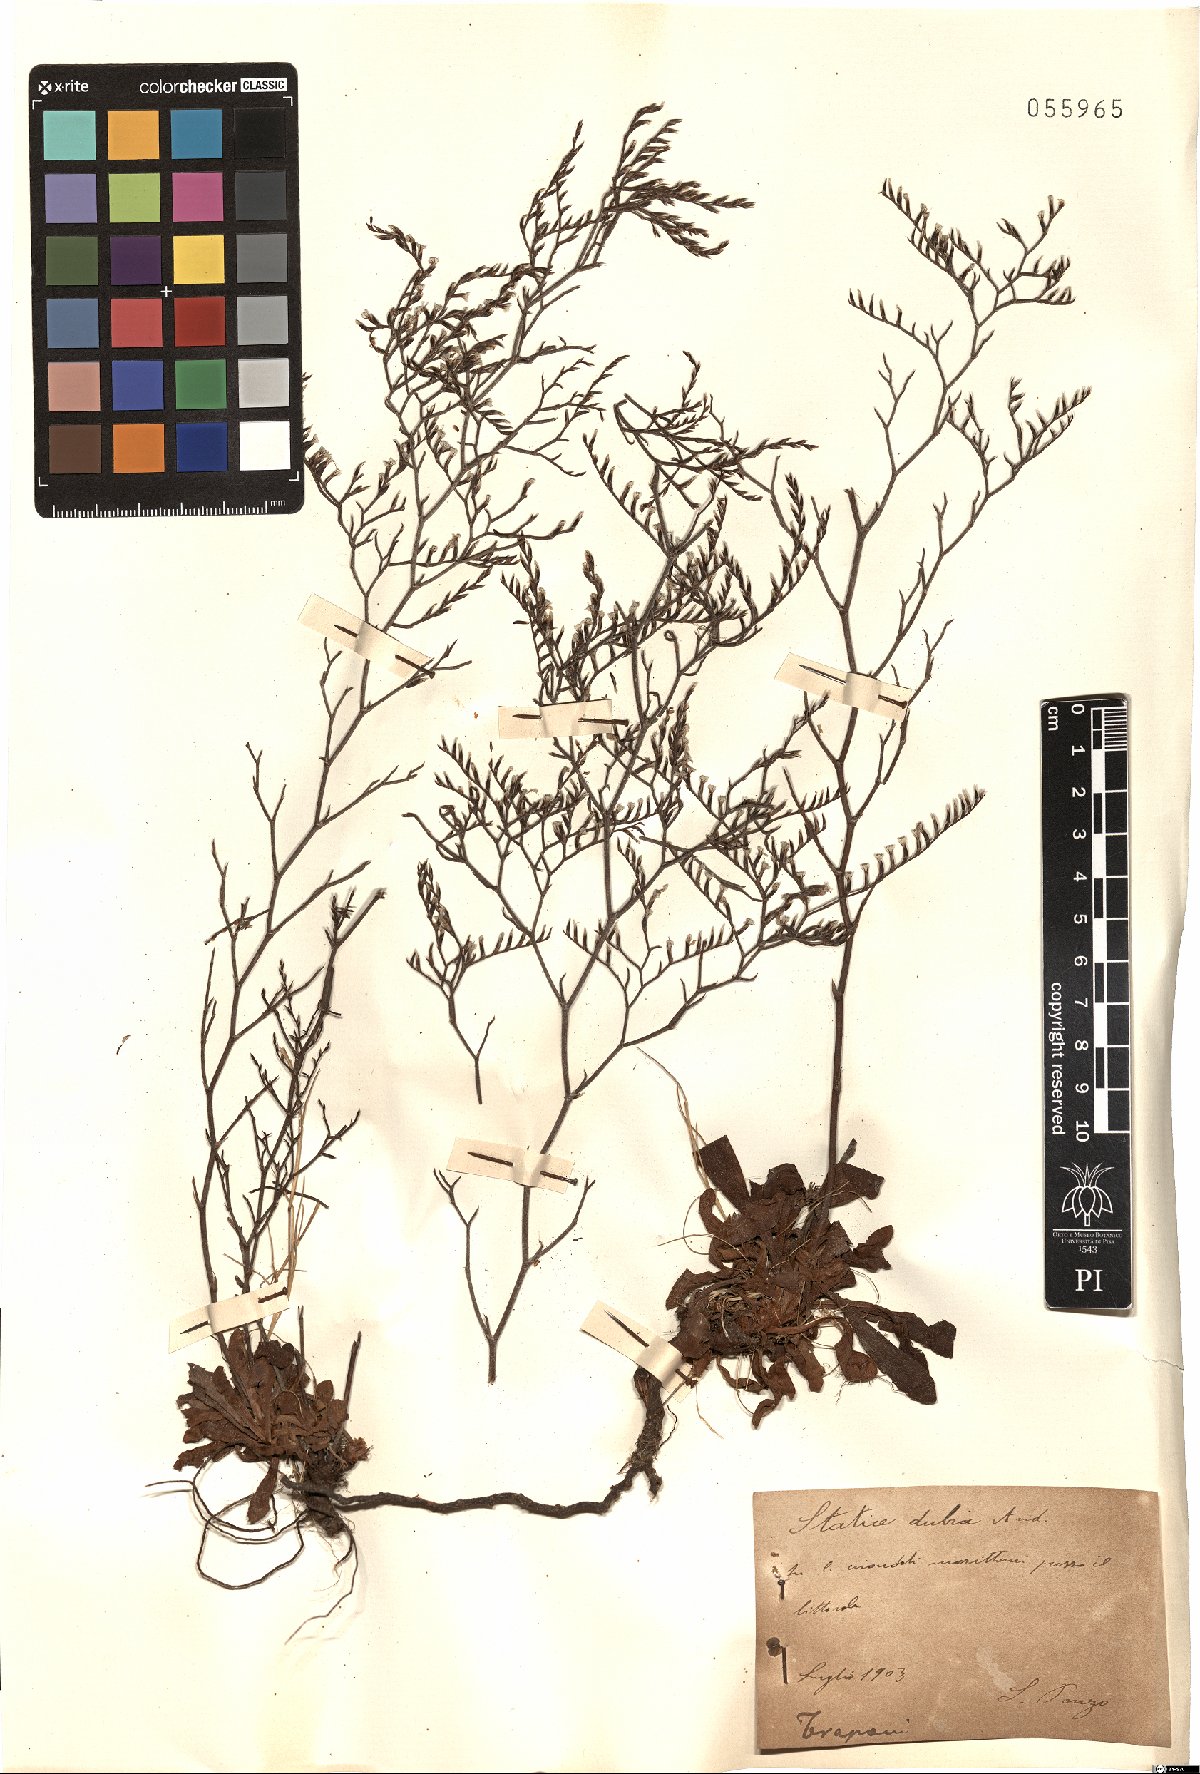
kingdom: Plantae
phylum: Tracheophyta
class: Magnoliopsida
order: Caryophyllales
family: Plumbaginaceae
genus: Limonium
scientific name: Limonium dubium
